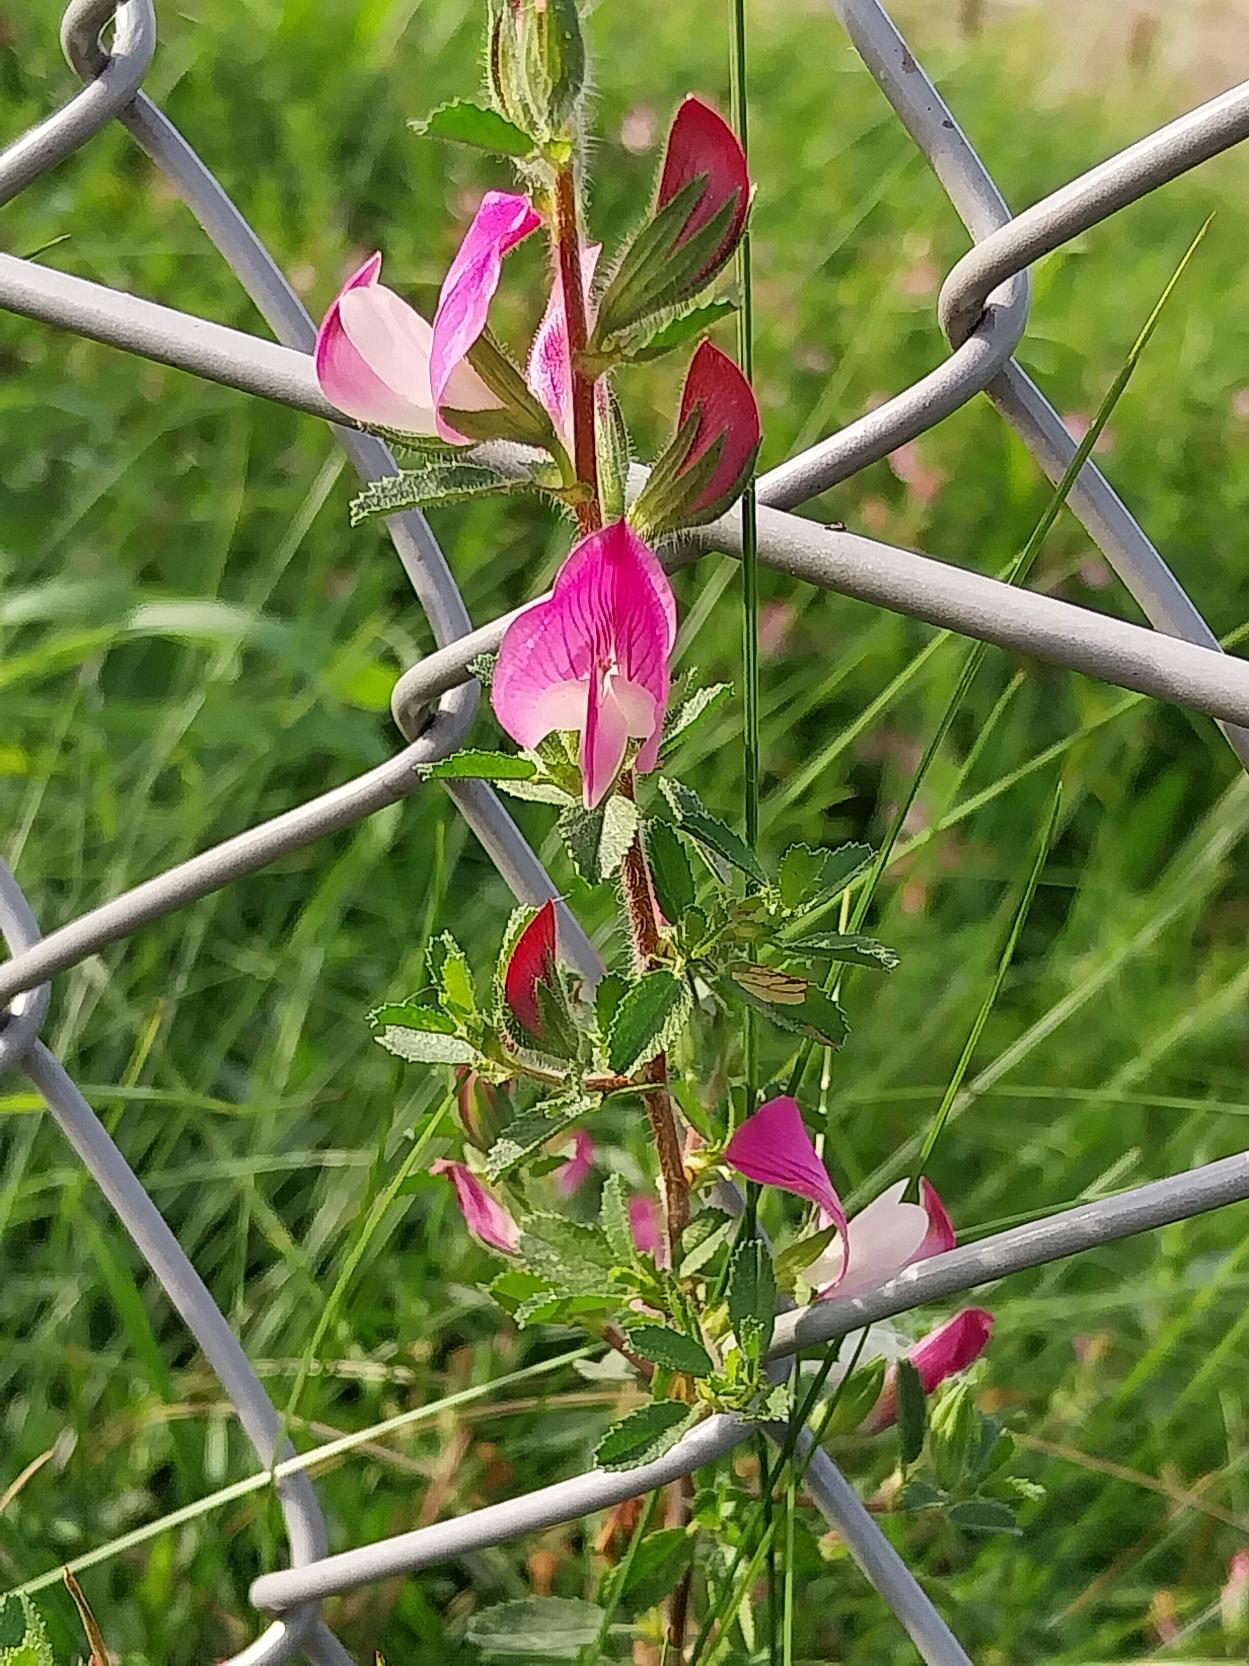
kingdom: Plantae
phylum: Tracheophyta
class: Magnoliopsida
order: Fabales
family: Fabaceae
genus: Ononis
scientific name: Ononis spinosa
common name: Mark-krageklo
